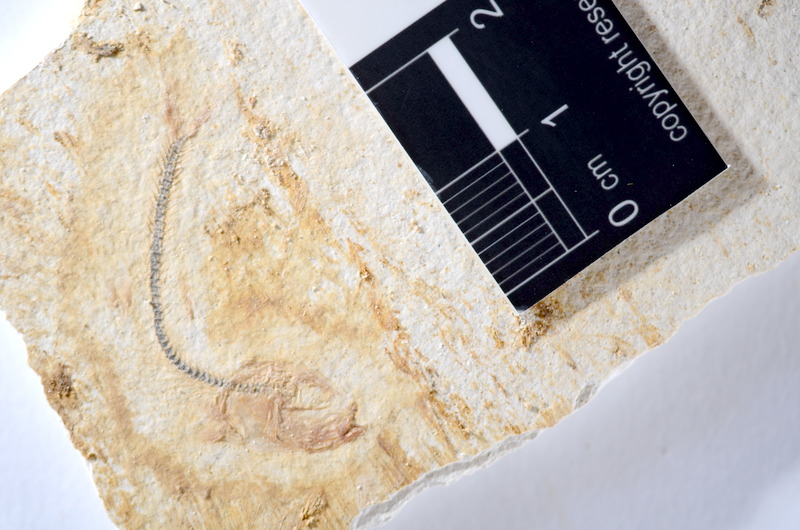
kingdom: Animalia
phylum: Chordata
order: Salmoniformes
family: Orthogonikleithridae
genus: Orthogonikleithrus
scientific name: Orthogonikleithrus hoelli
